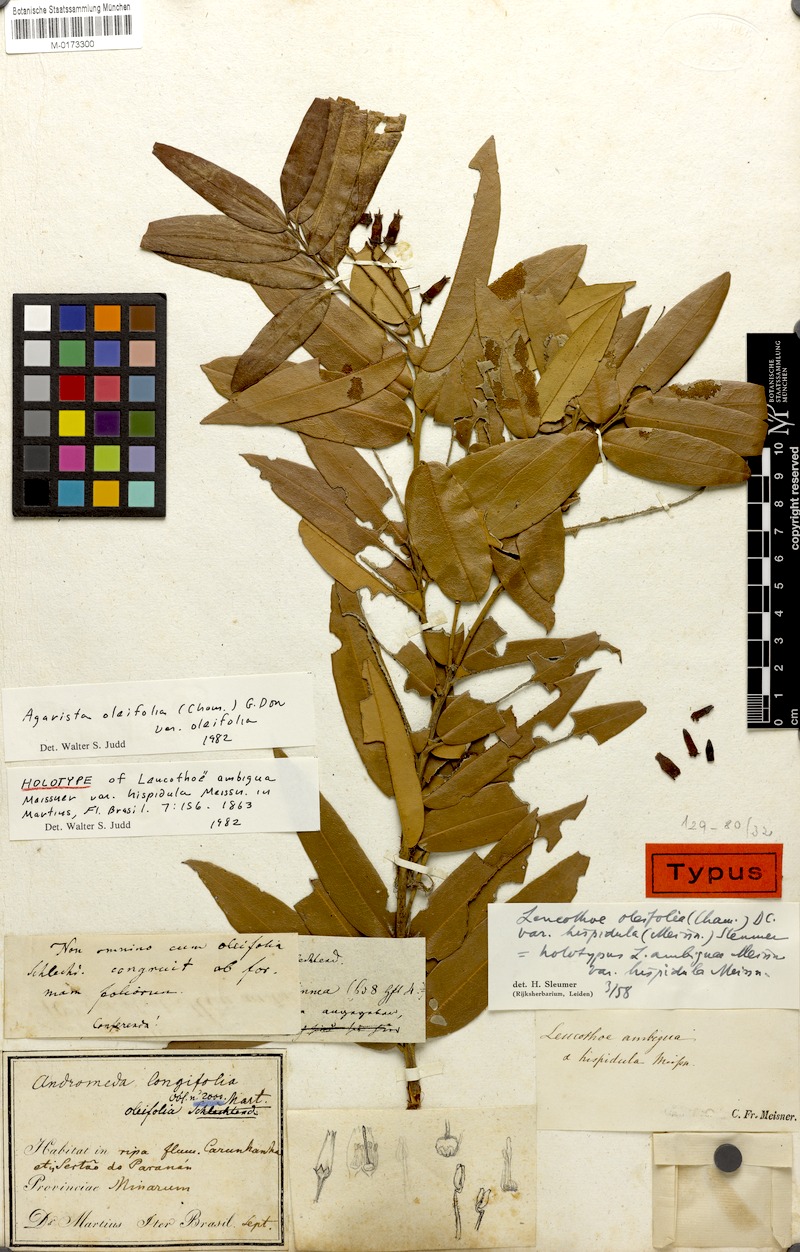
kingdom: Plantae
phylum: Tracheophyta
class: Magnoliopsida
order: Ericales
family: Ericaceae
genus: Agarista
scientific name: Agarista oleifolia
